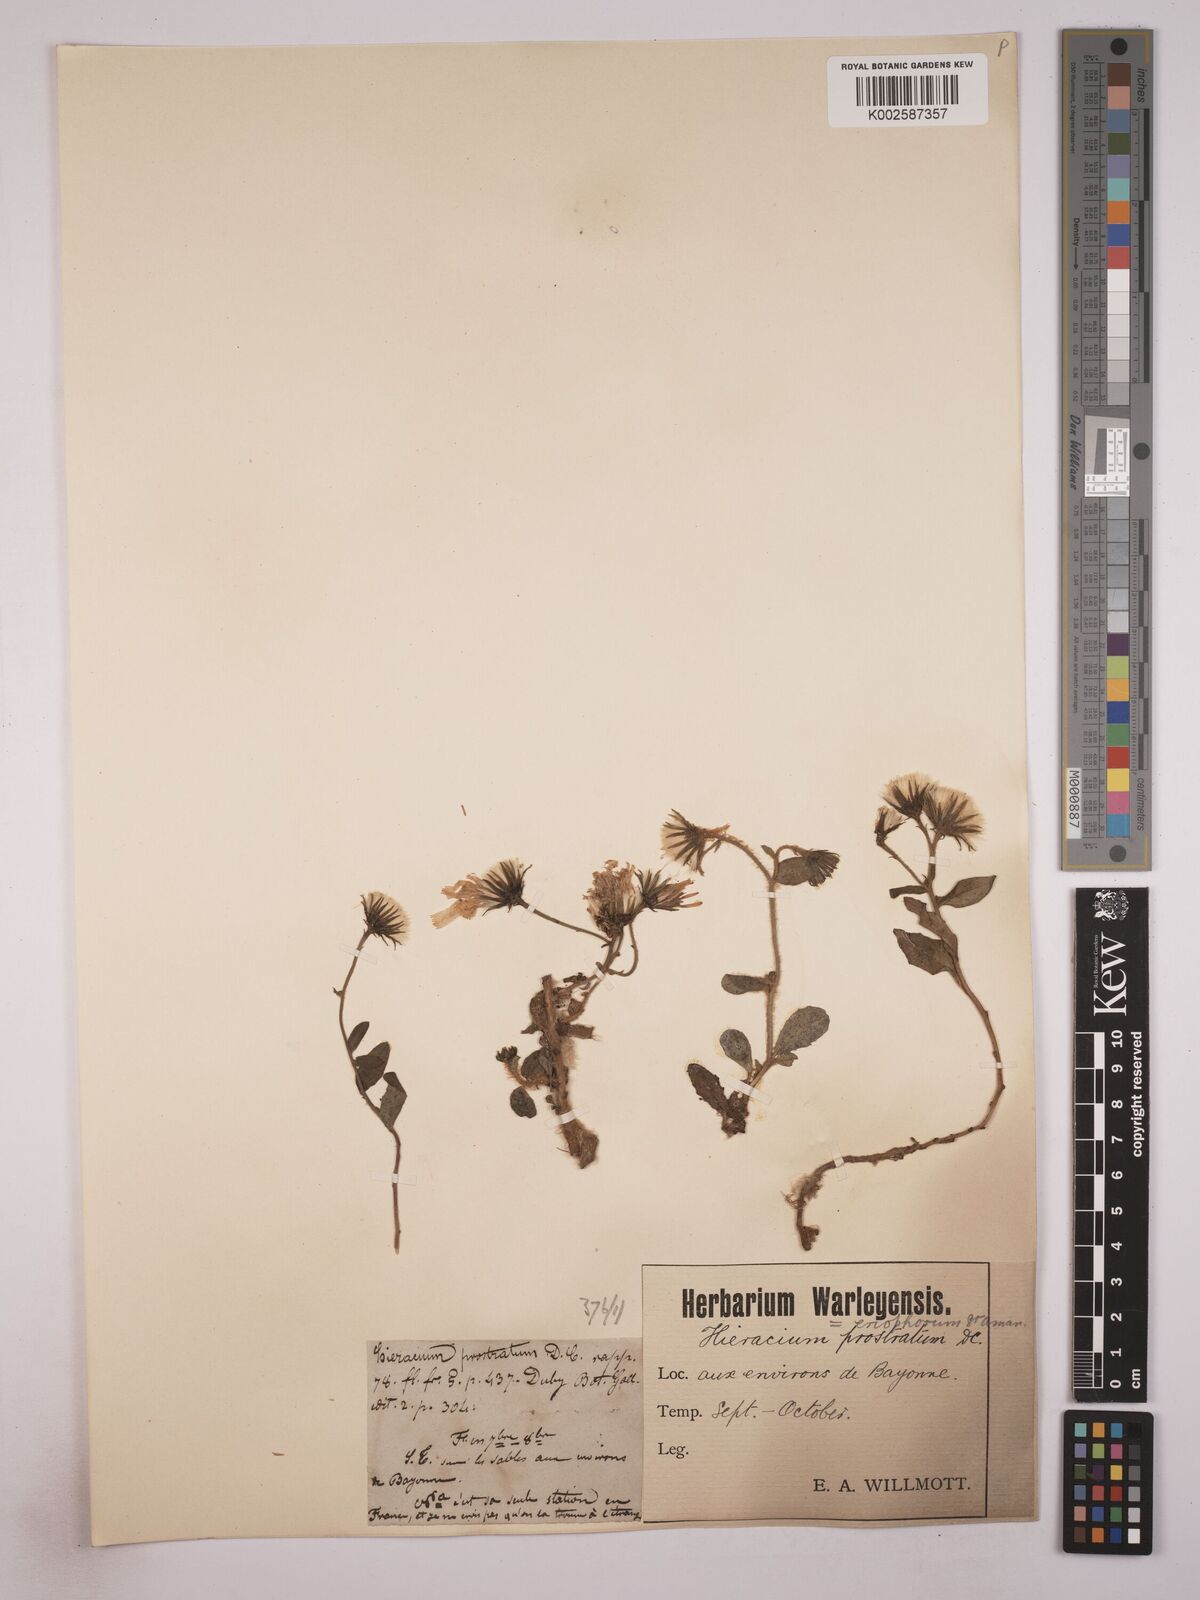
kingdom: Plantae
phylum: Tracheophyta
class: Magnoliopsida
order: Asterales
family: Asteraceae
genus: Hieracium
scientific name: Hieracium prostratum
